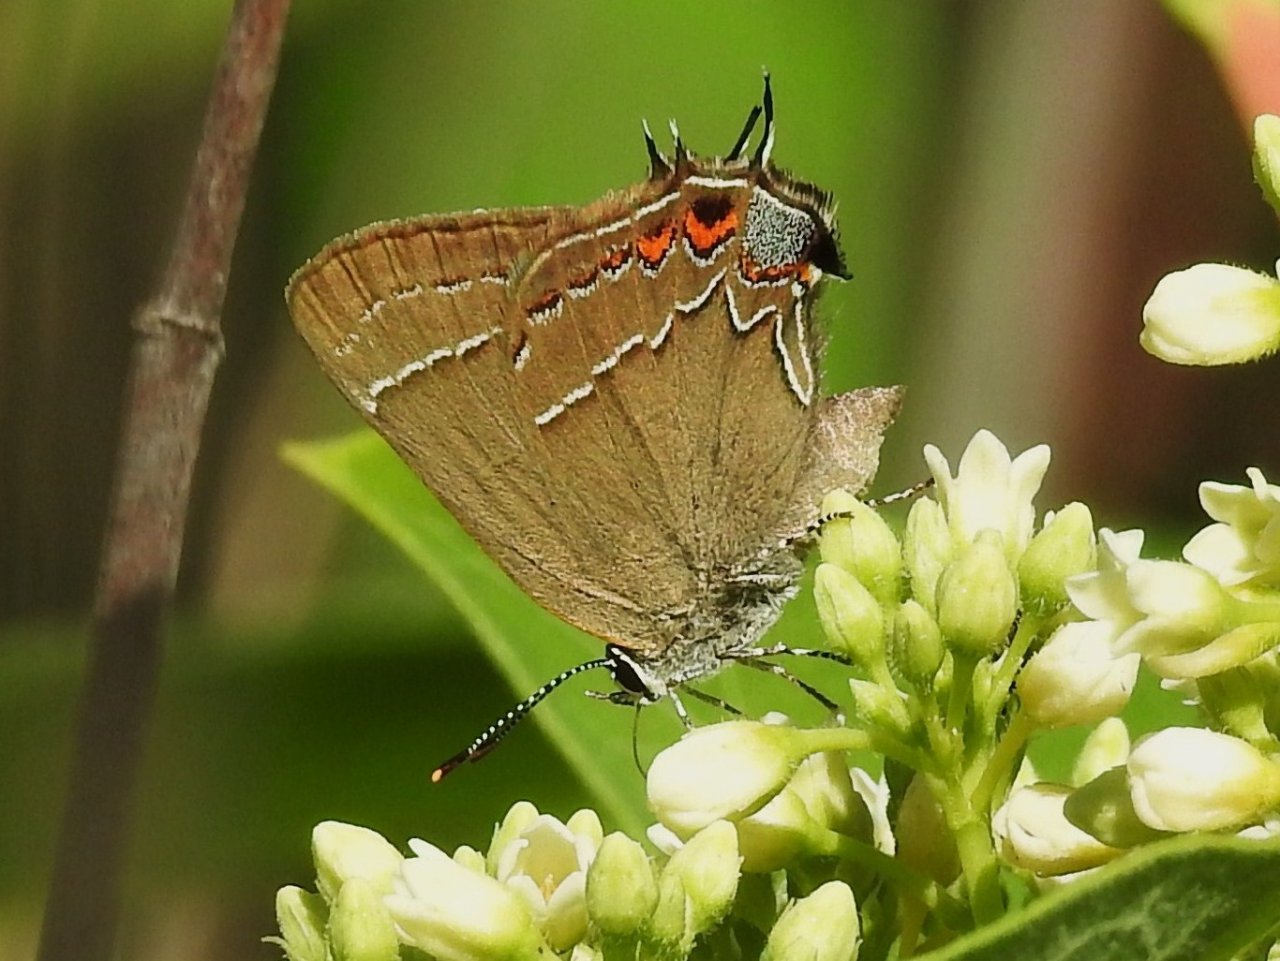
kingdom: Animalia
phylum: Arthropoda
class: Insecta
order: Lepidoptera
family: Lycaenidae
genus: Fixsenia
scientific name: Fixsenia favonius
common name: Oak Hairstreak
